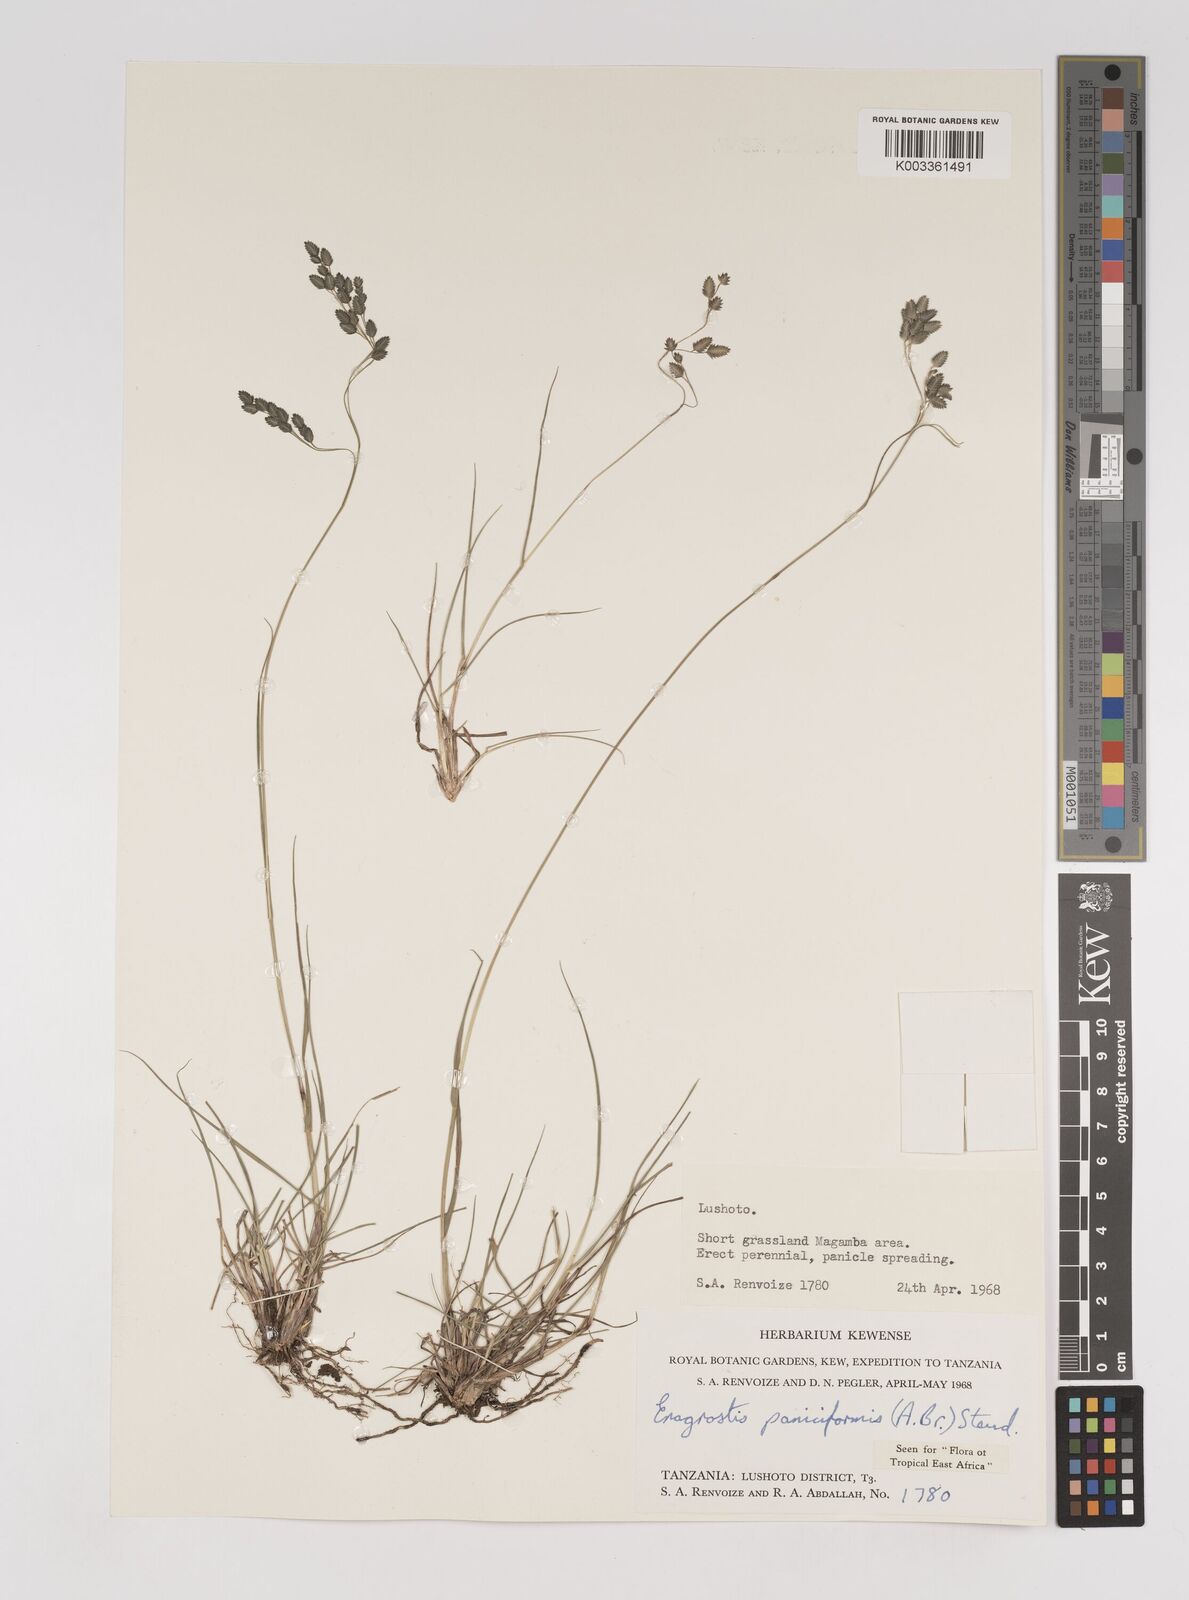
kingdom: Plantae
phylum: Tracheophyta
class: Liliopsida
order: Poales
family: Poaceae
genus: Eragrostis
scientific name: Eragrostis paniciformis
